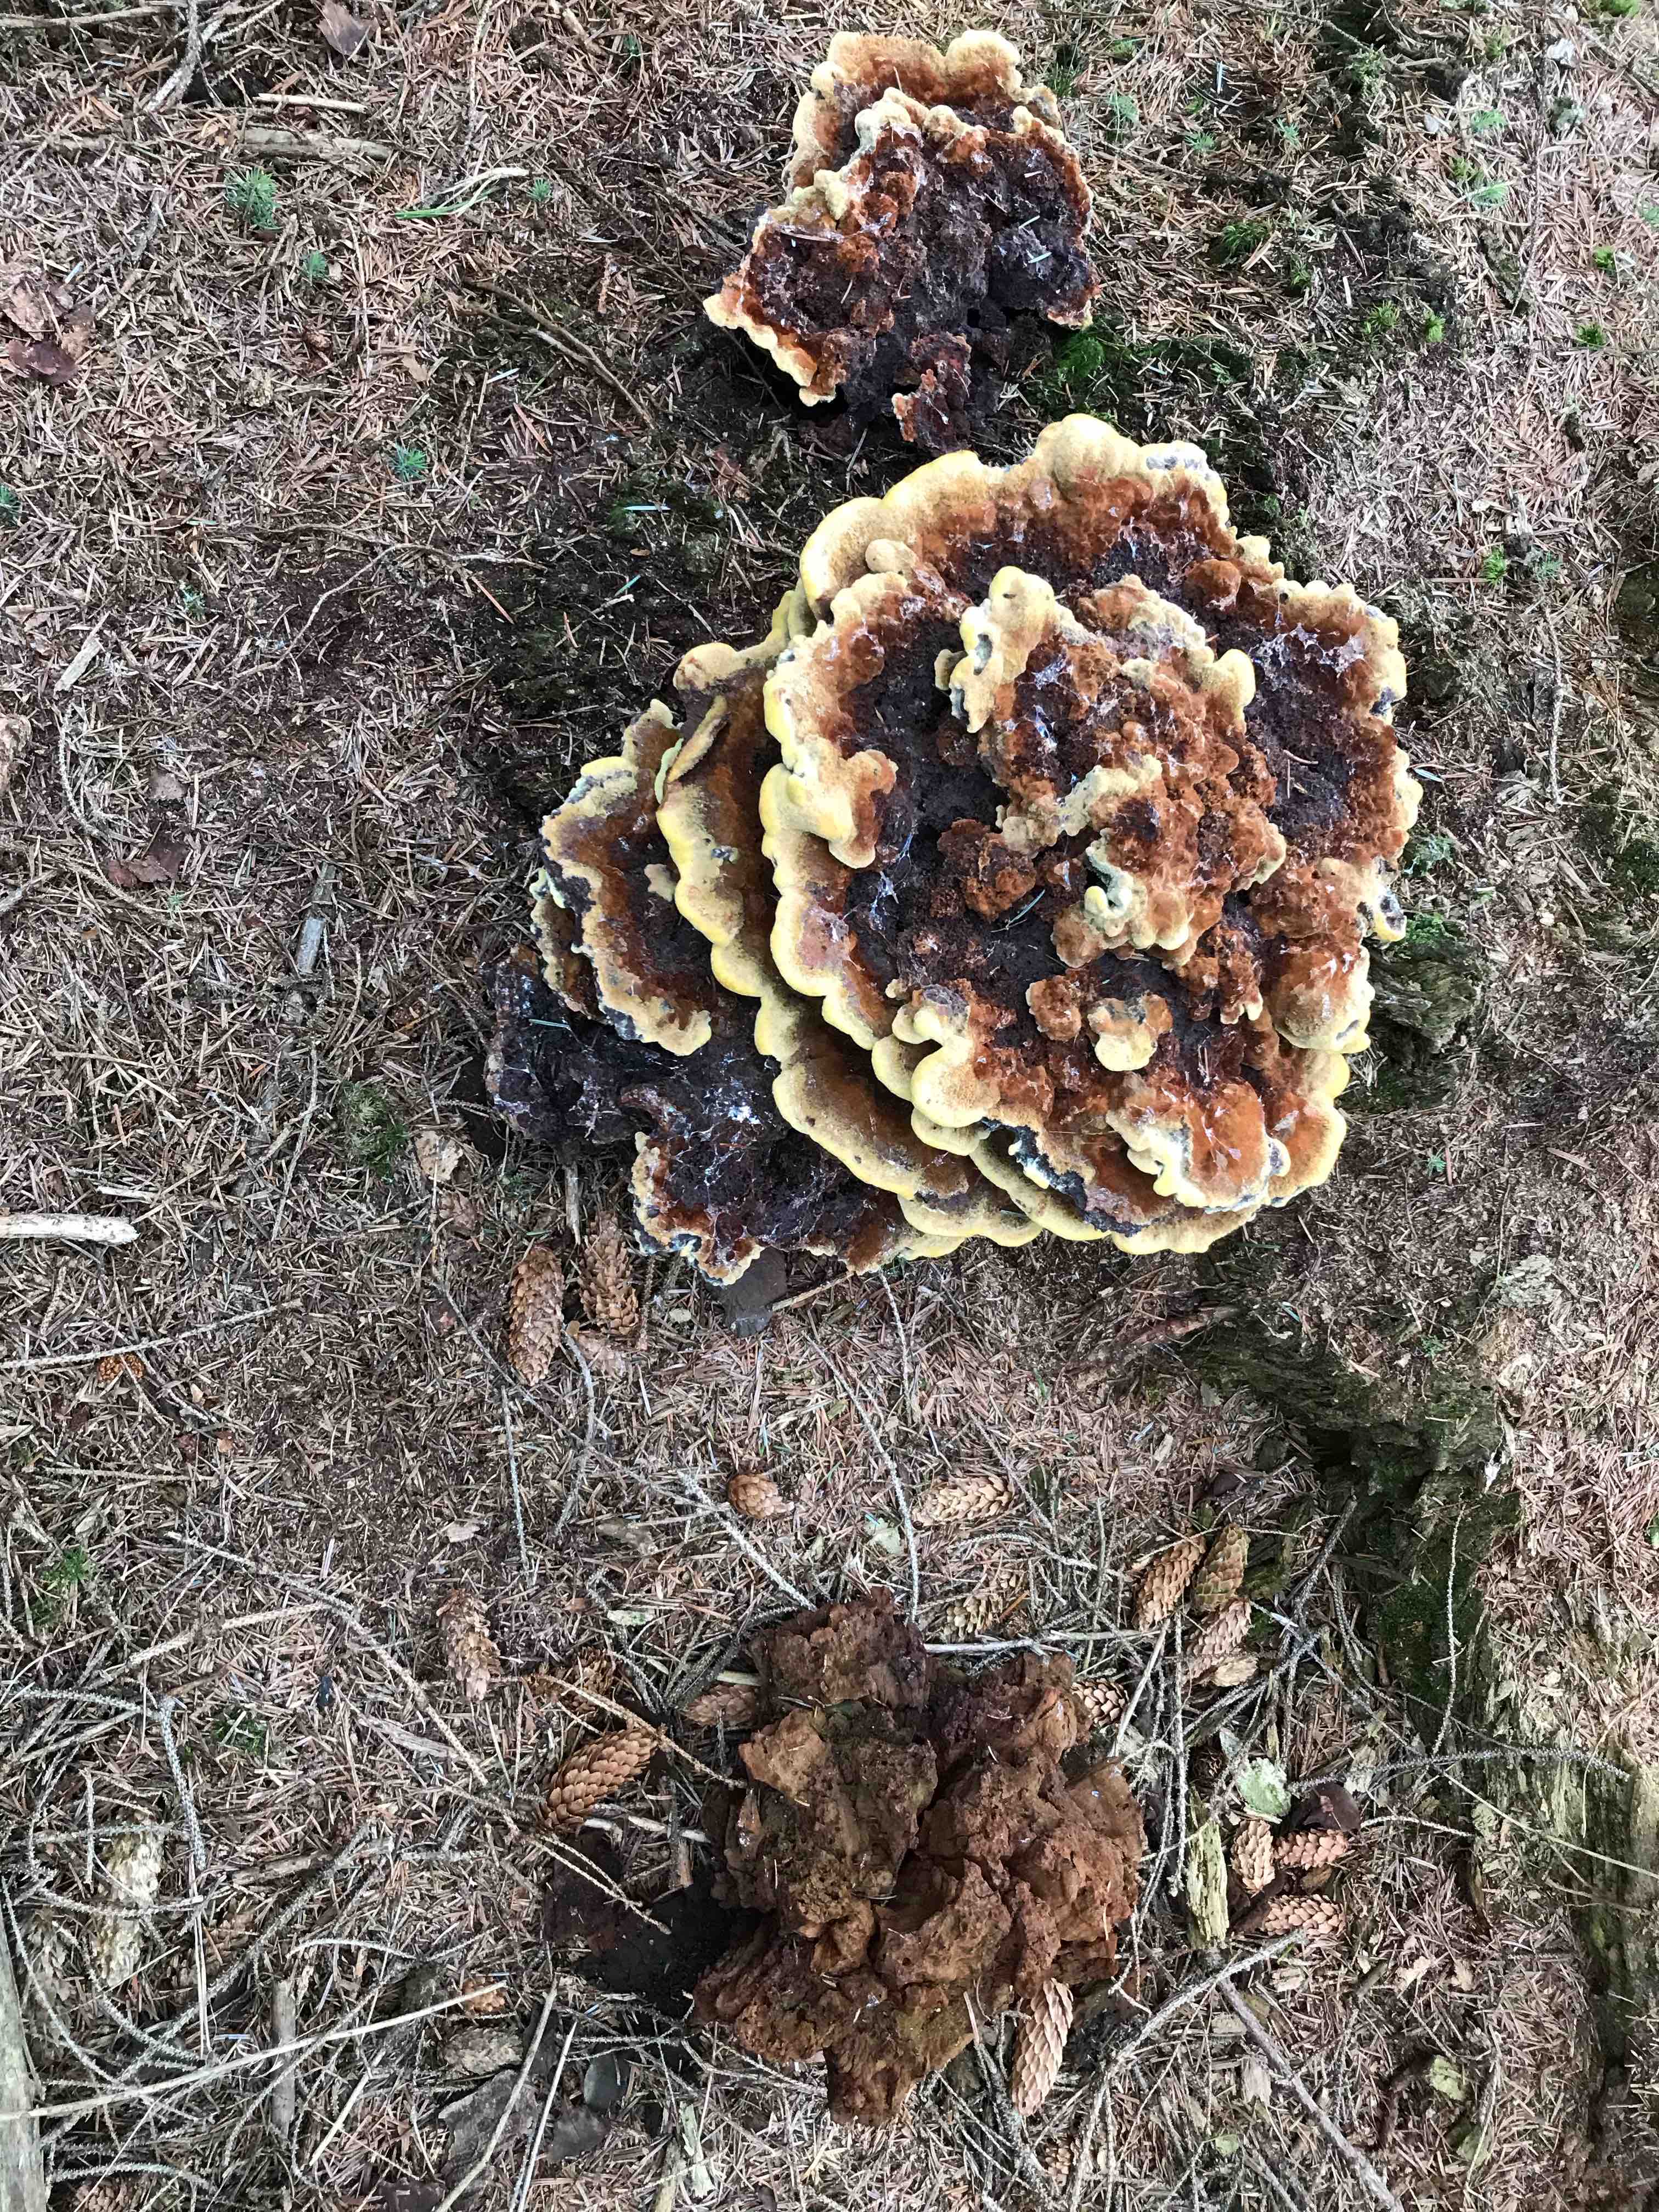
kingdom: Fungi
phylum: Basidiomycota
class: Agaricomycetes
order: Polyporales
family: Laetiporaceae
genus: Phaeolus
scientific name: Phaeolus schweinitzii
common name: brunporesvamp
